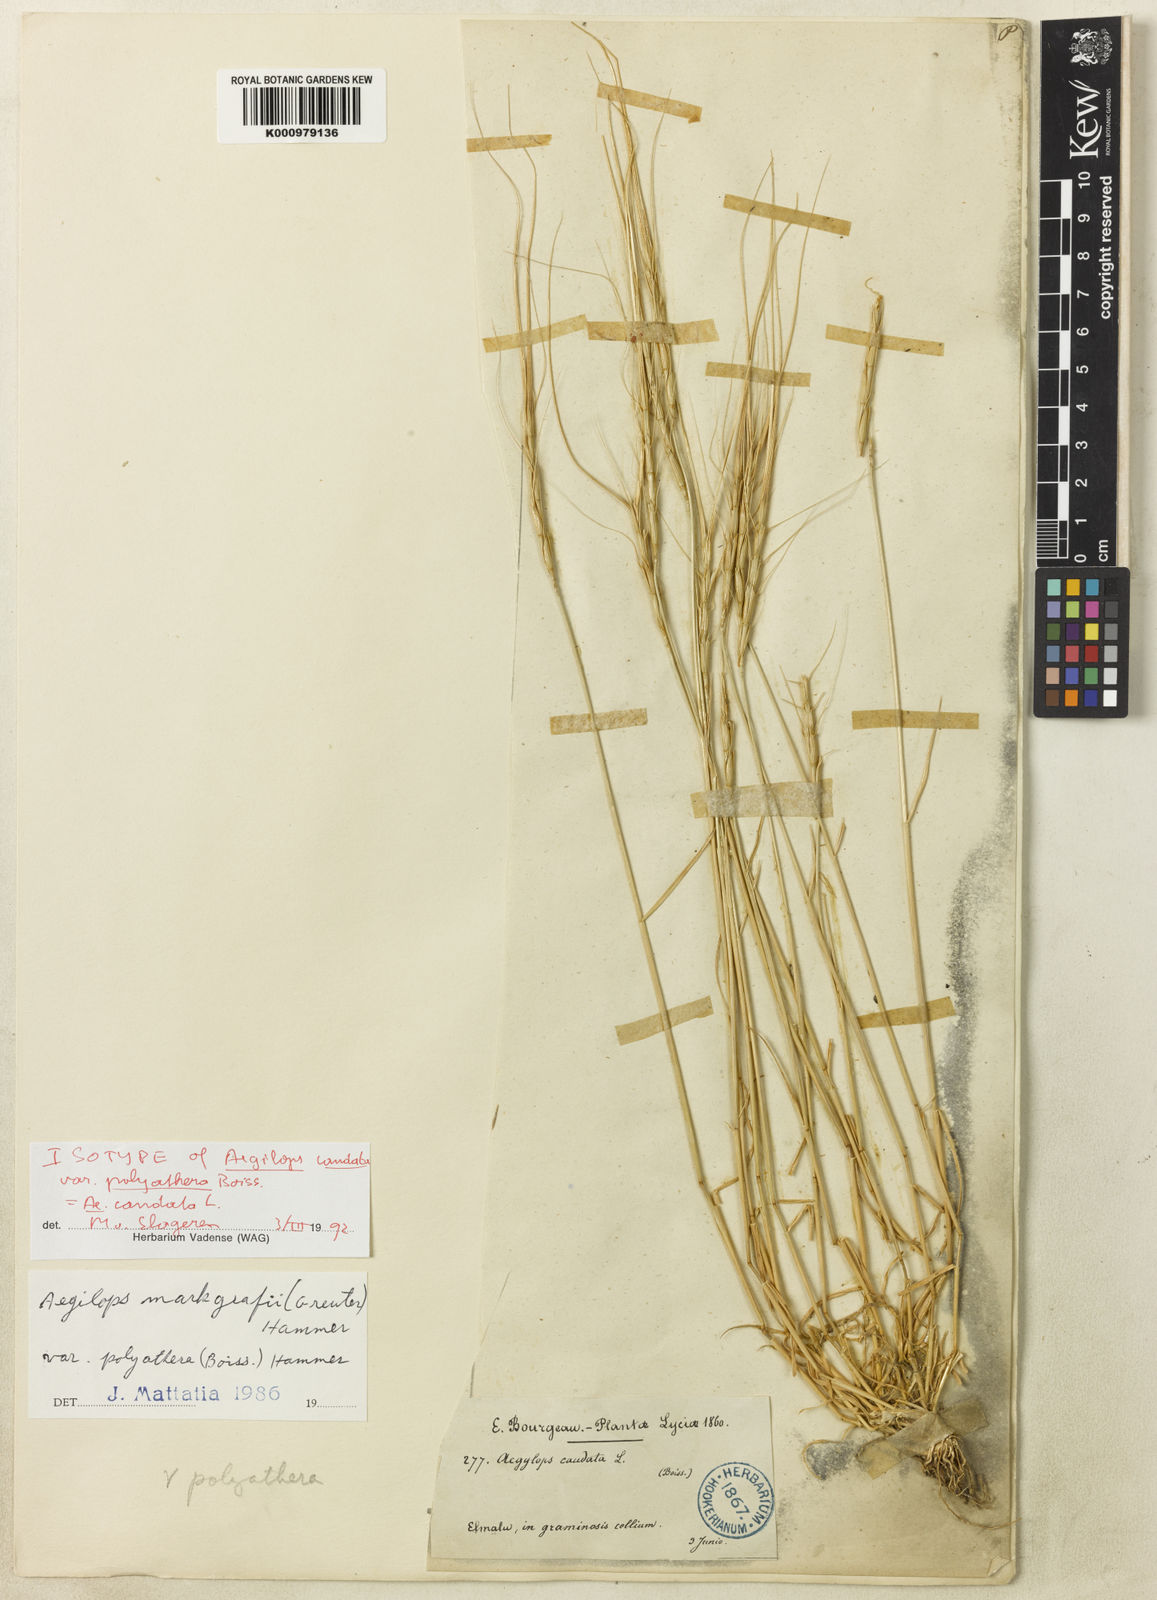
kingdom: Plantae
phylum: Tracheophyta
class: Liliopsida
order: Poales
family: Poaceae
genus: Aegilops
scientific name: Aegilops caudata
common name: Cretan hard-grass
